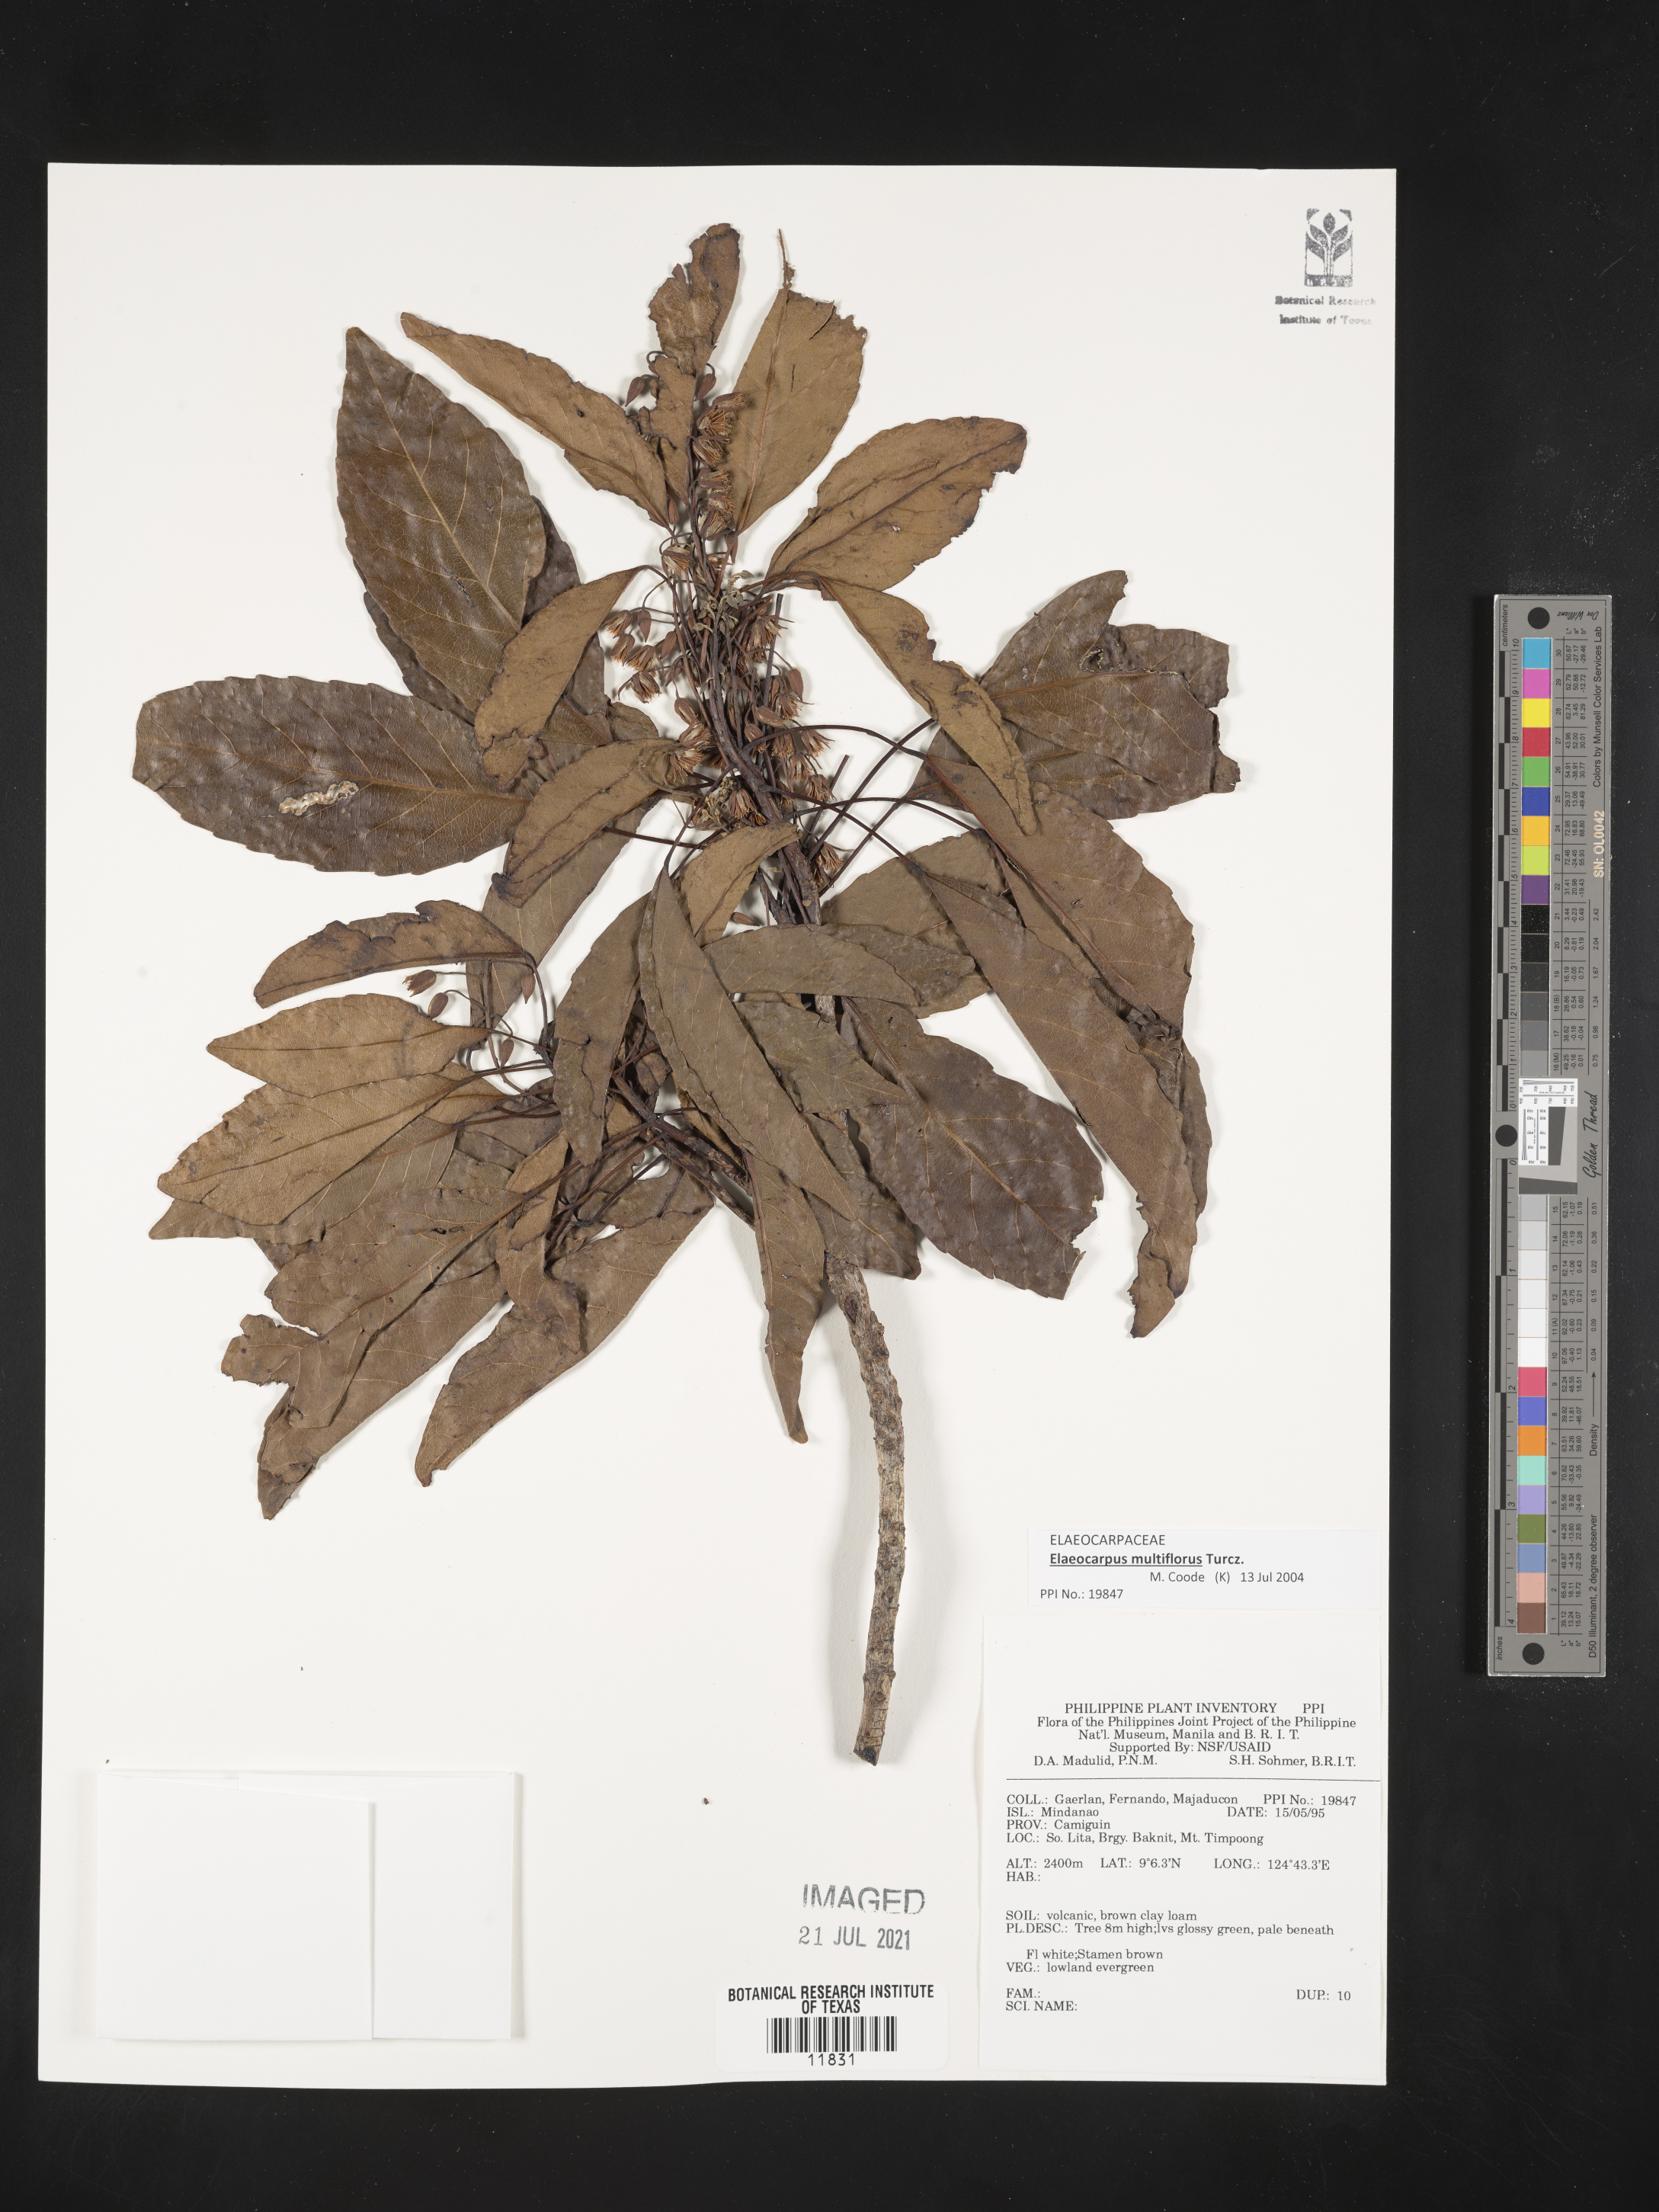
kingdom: Plantae
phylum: Tracheophyta
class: Magnoliopsida
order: Oxalidales
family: Elaeocarpaceae
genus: Elaeocarpus
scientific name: Elaeocarpus multiflorus
